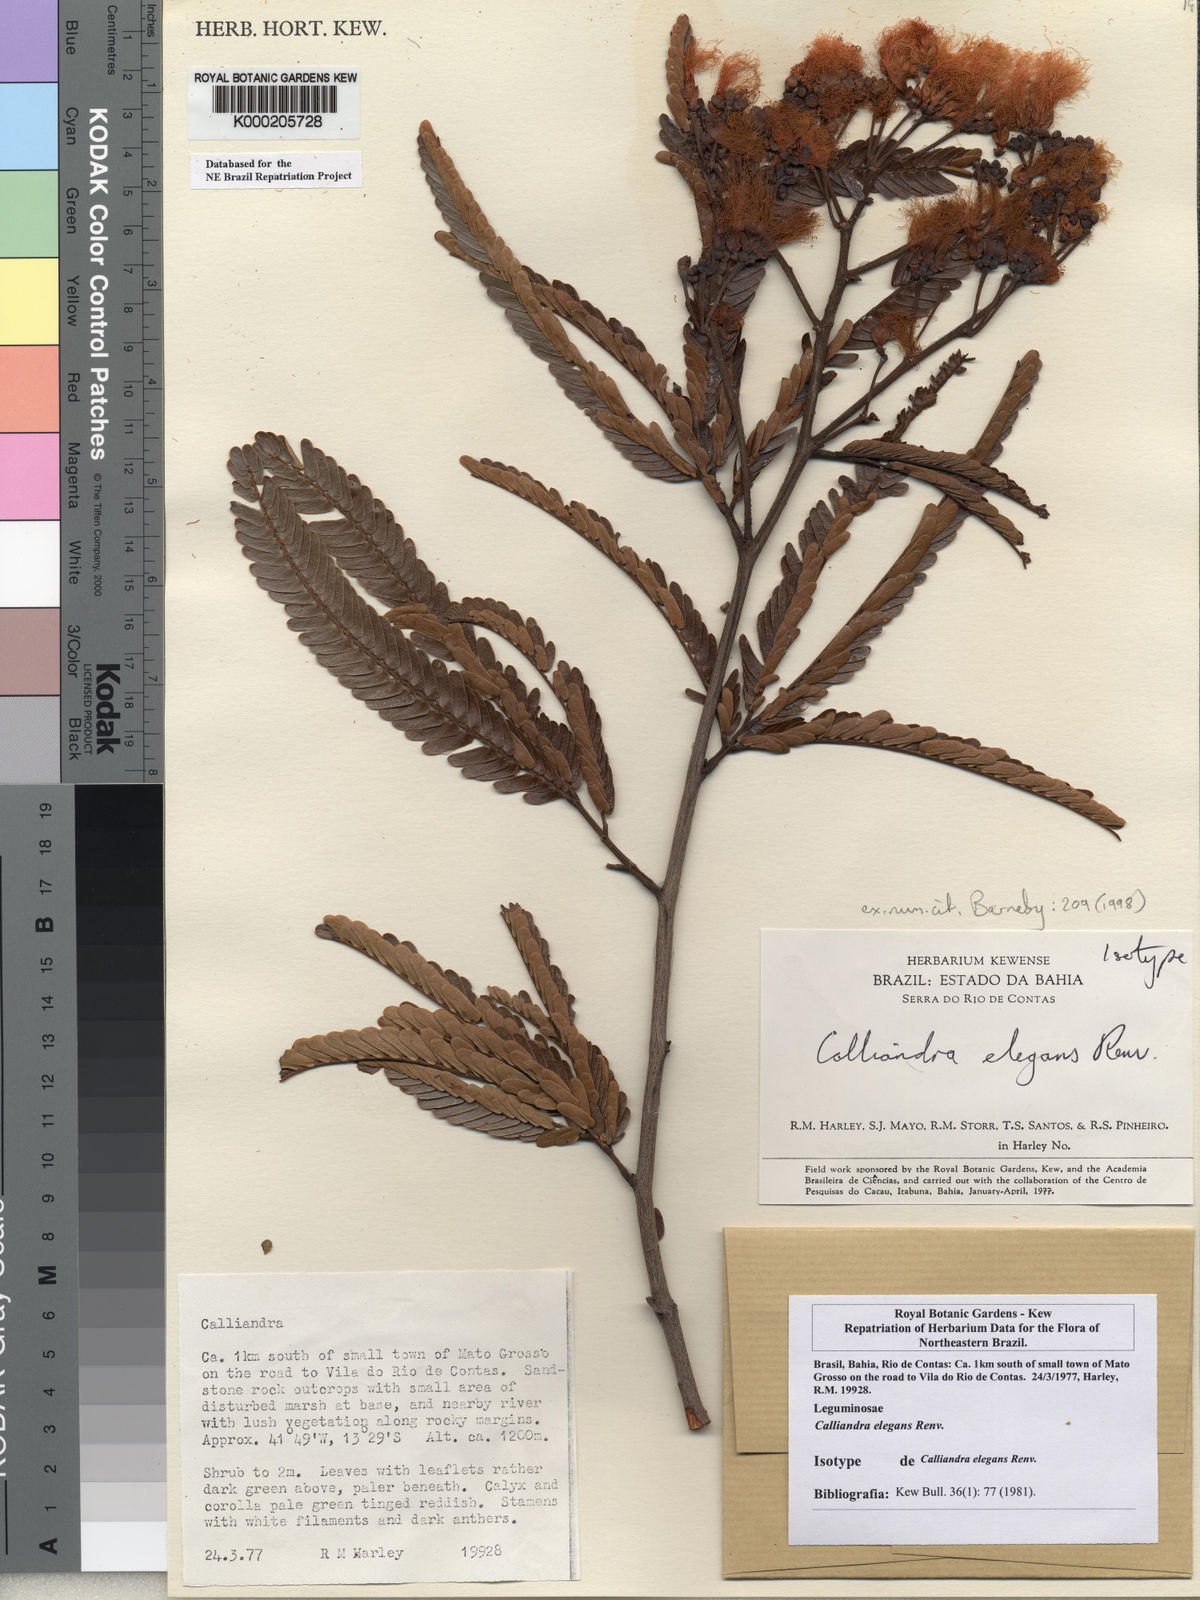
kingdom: Plantae
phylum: Tracheophyta
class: Magnoliopsida
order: Fabales
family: Fabaceae
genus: Calliandra
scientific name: Calliandra elegans
